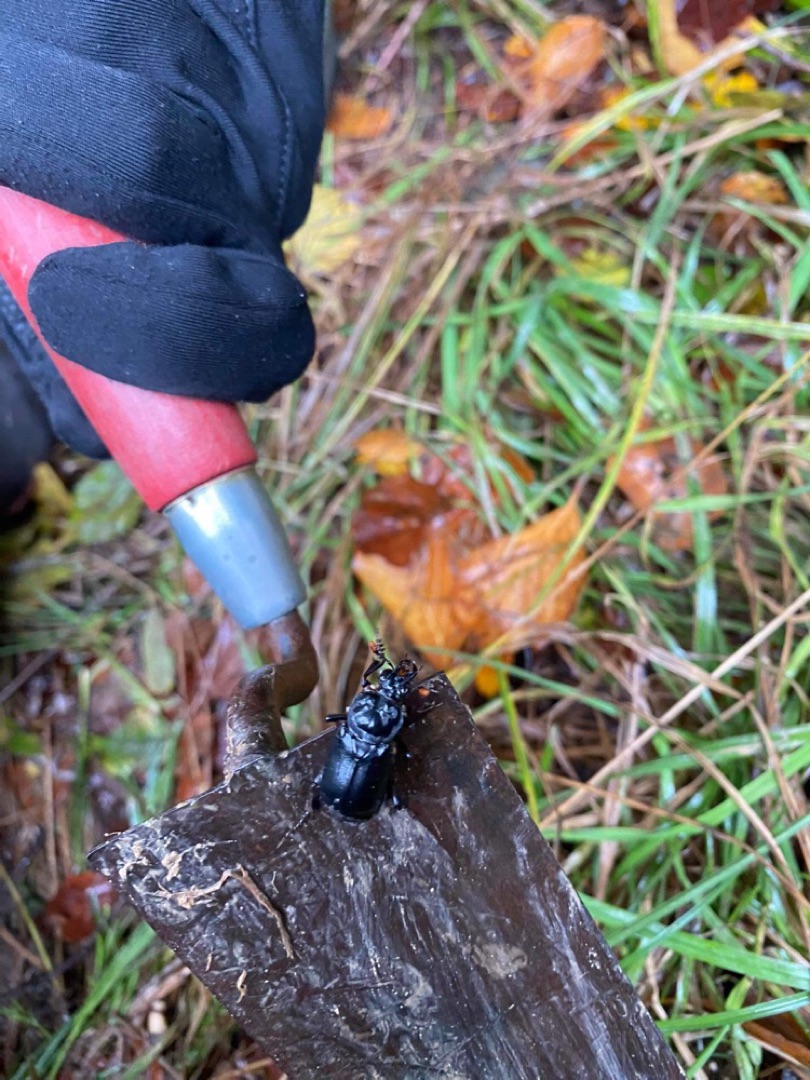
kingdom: Animalia
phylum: Arthropoda
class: Insecta
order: Coleoptera
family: Staphylinidae
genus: Nicrophorus
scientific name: Nicrophorus humator
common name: Sort ådselgraver
